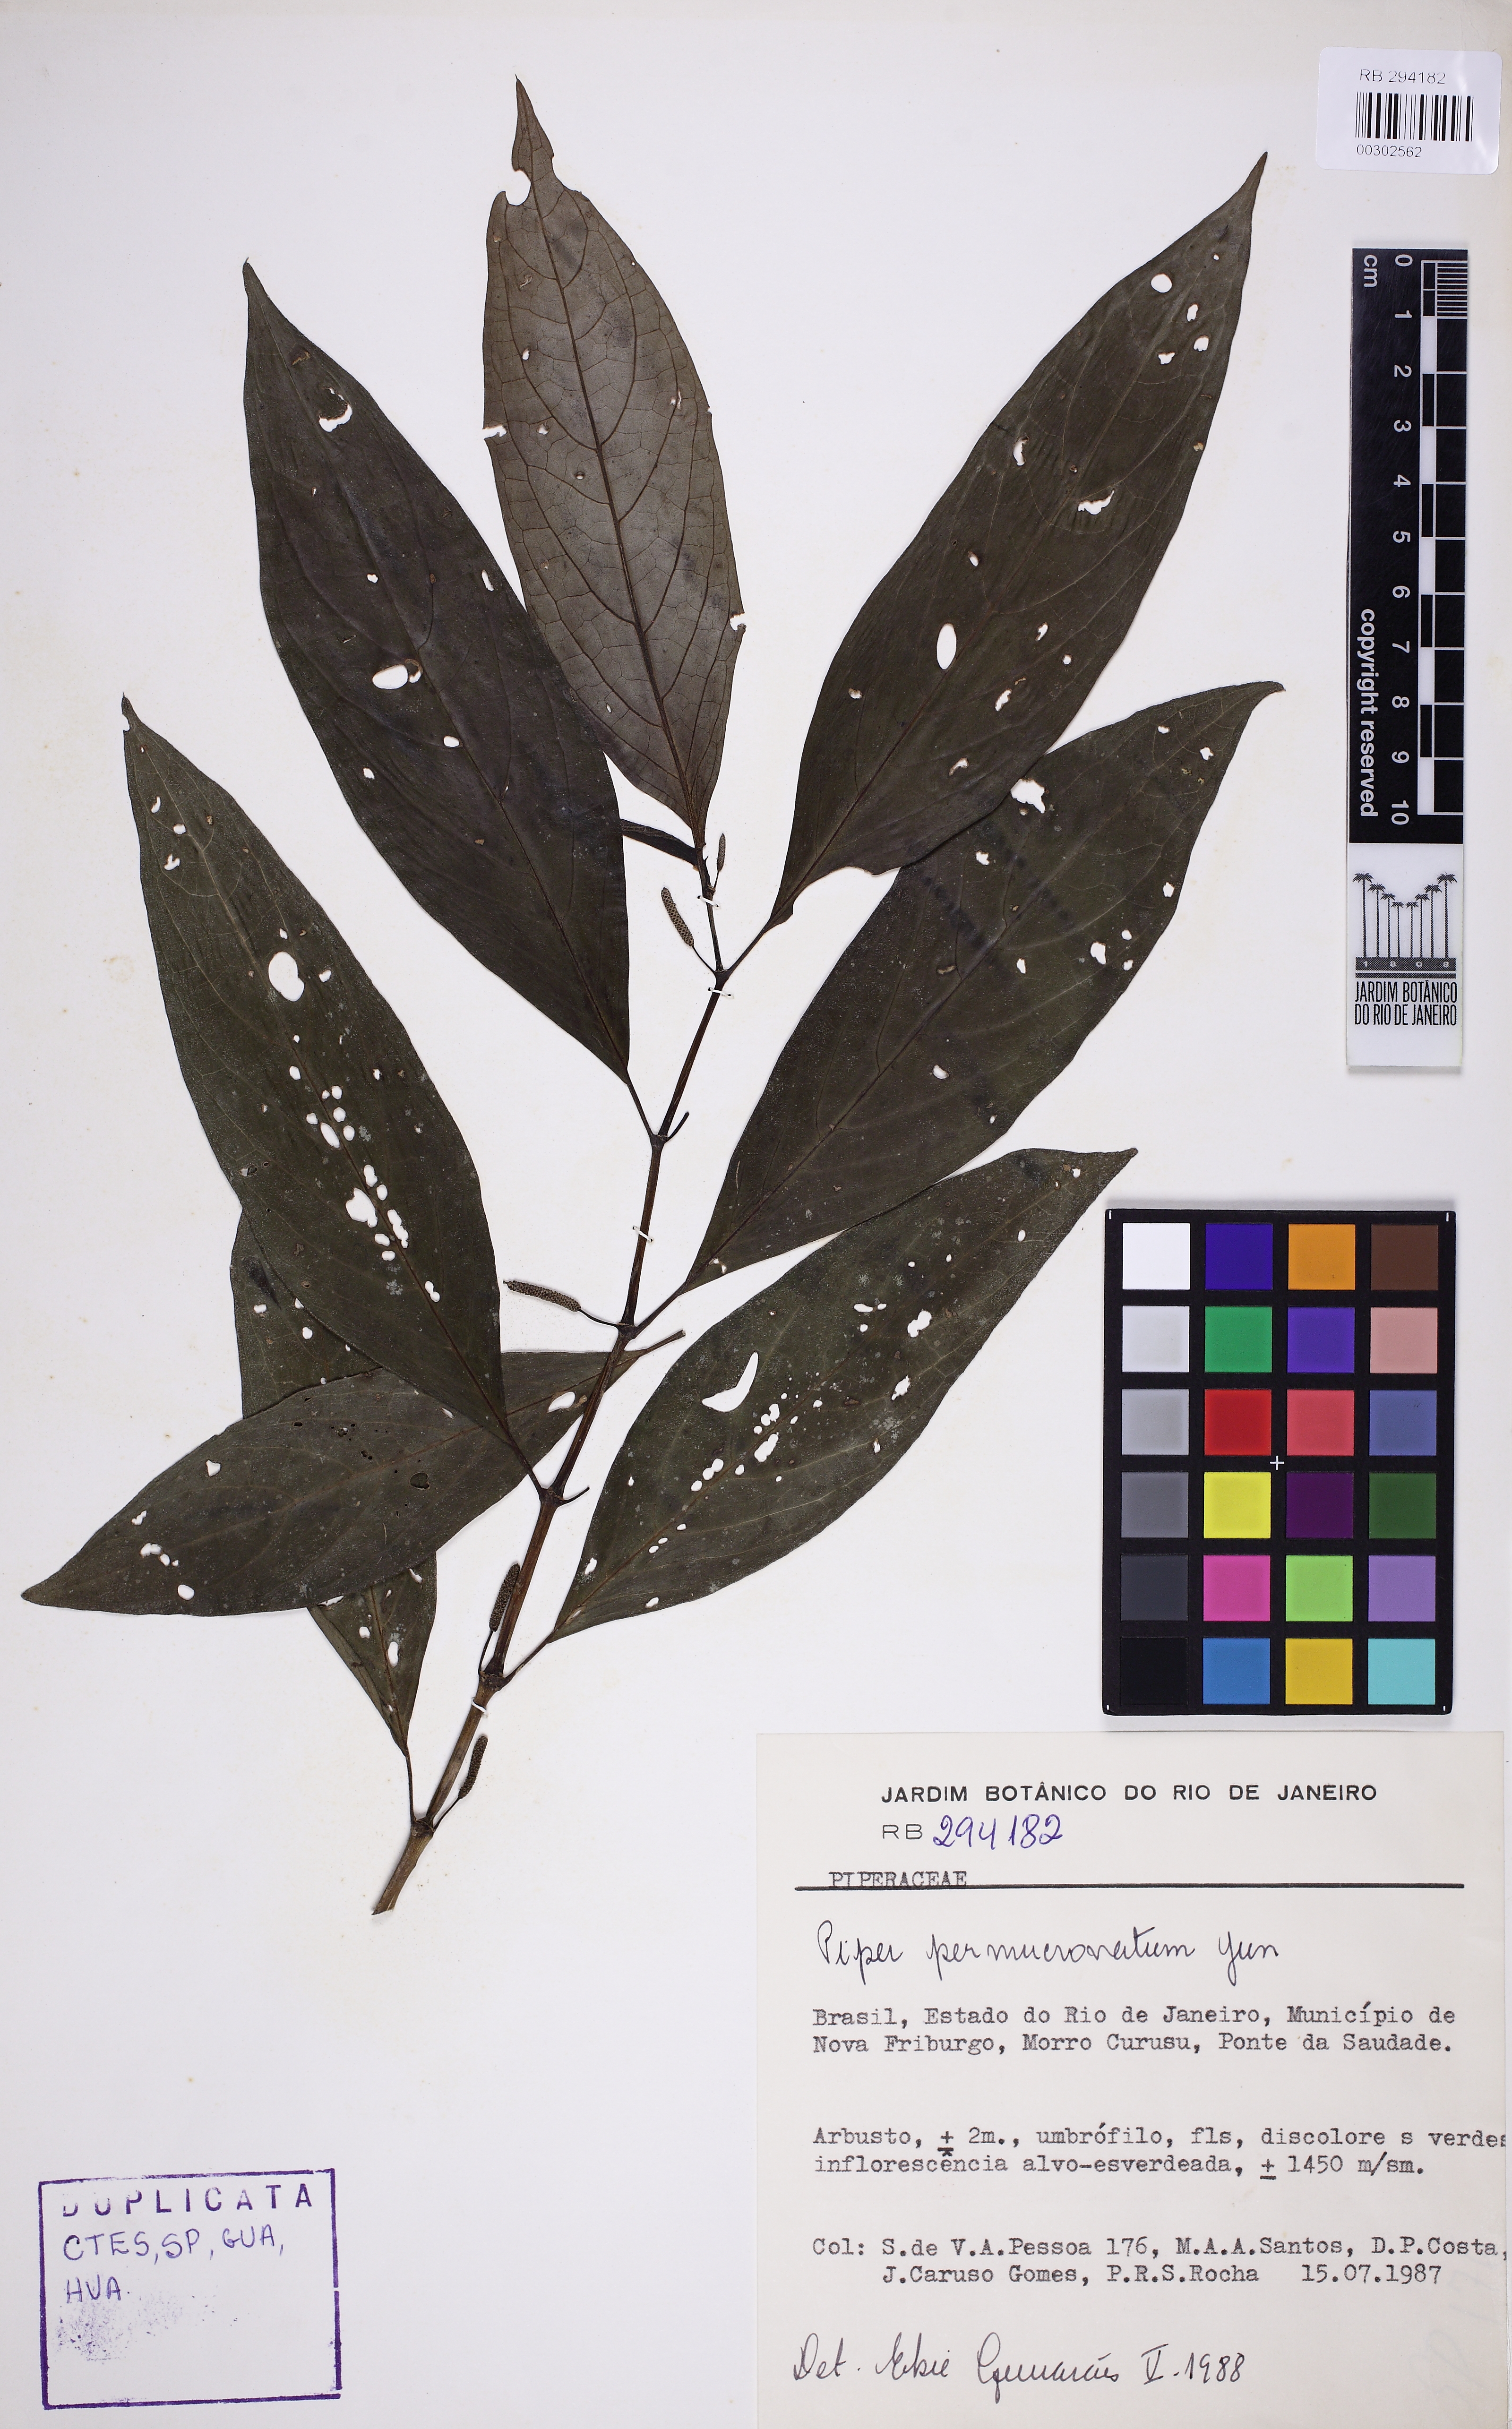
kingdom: Plantae
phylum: Tracheophyta
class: Magnoliopsida
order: Piperales
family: Piperaceae
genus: Piper
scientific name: Piper permucronatum
